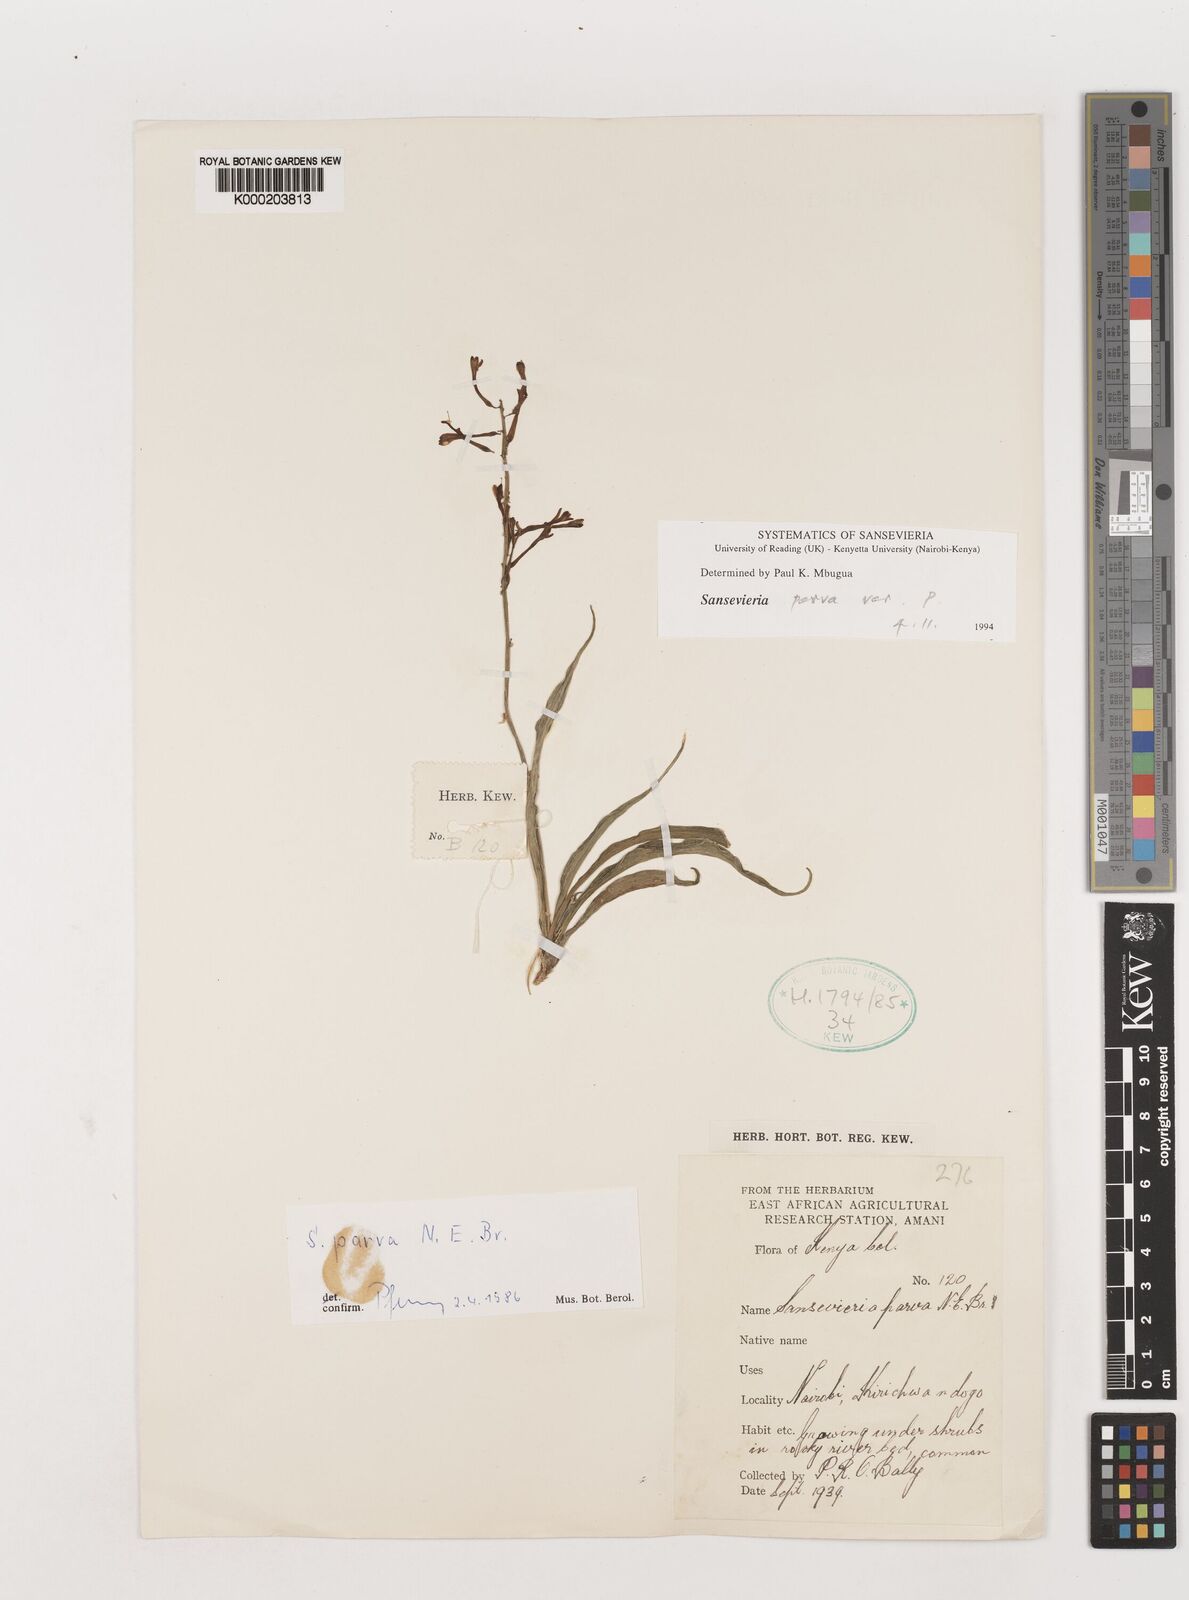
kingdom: Plantae
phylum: Tracheophyta
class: Liliopsida
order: Asparagales
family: Asparagaceae
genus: Dracaena
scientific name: Dracaena parva
